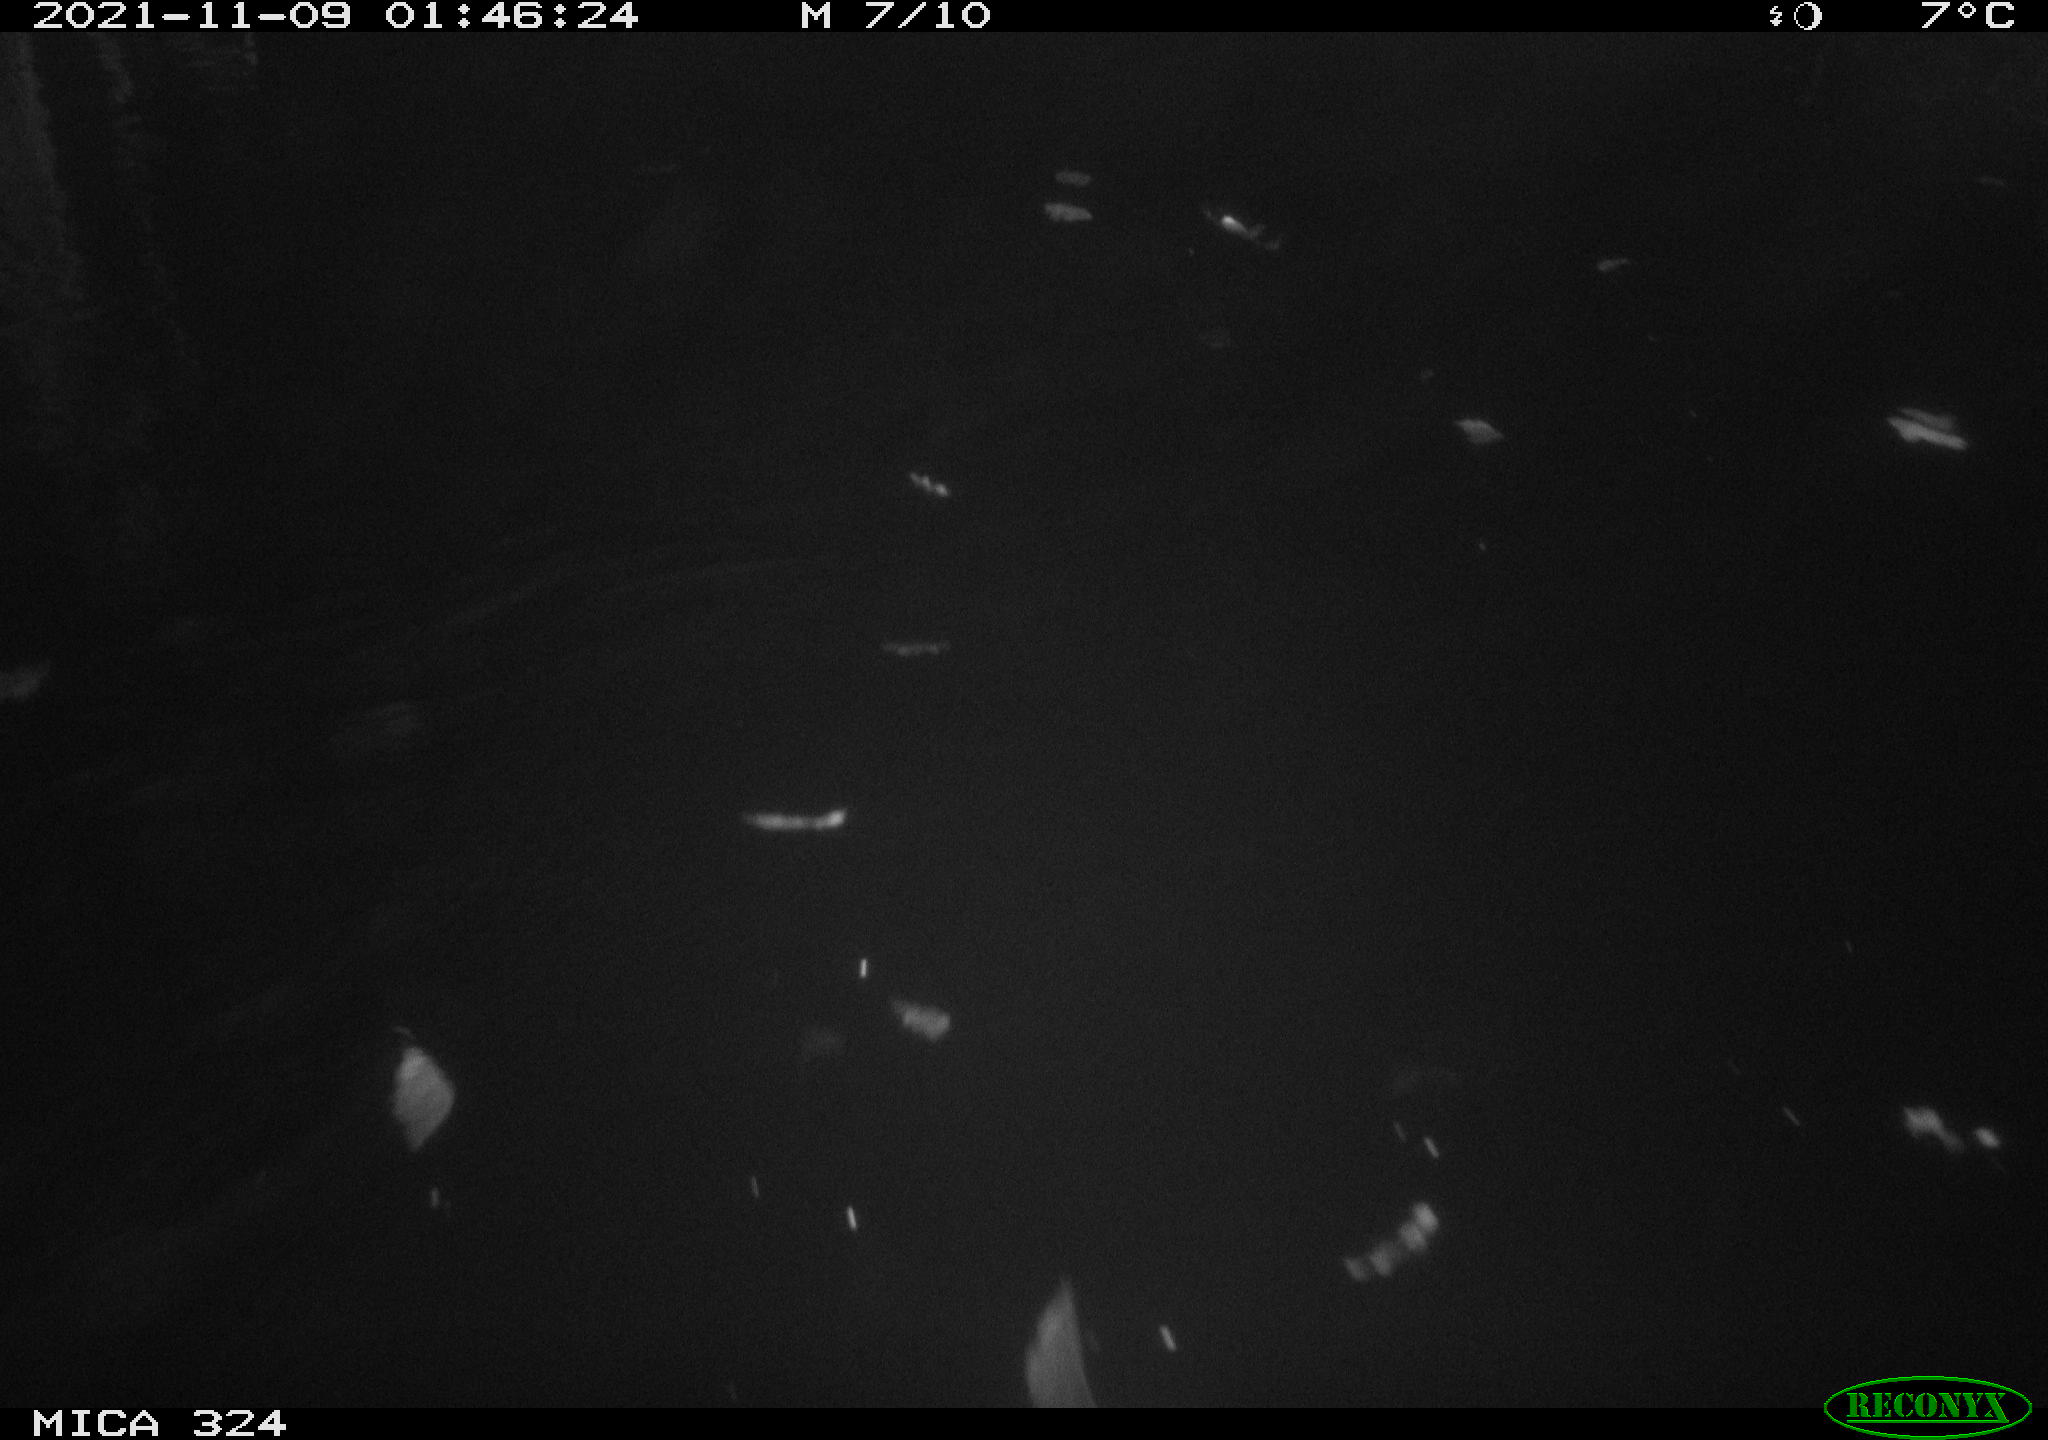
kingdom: Animalia
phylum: Chordata
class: Mammalia
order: Rodentia
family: Cricetidae
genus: Ondatra
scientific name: Ondatra zibethicus
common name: Muskrat
